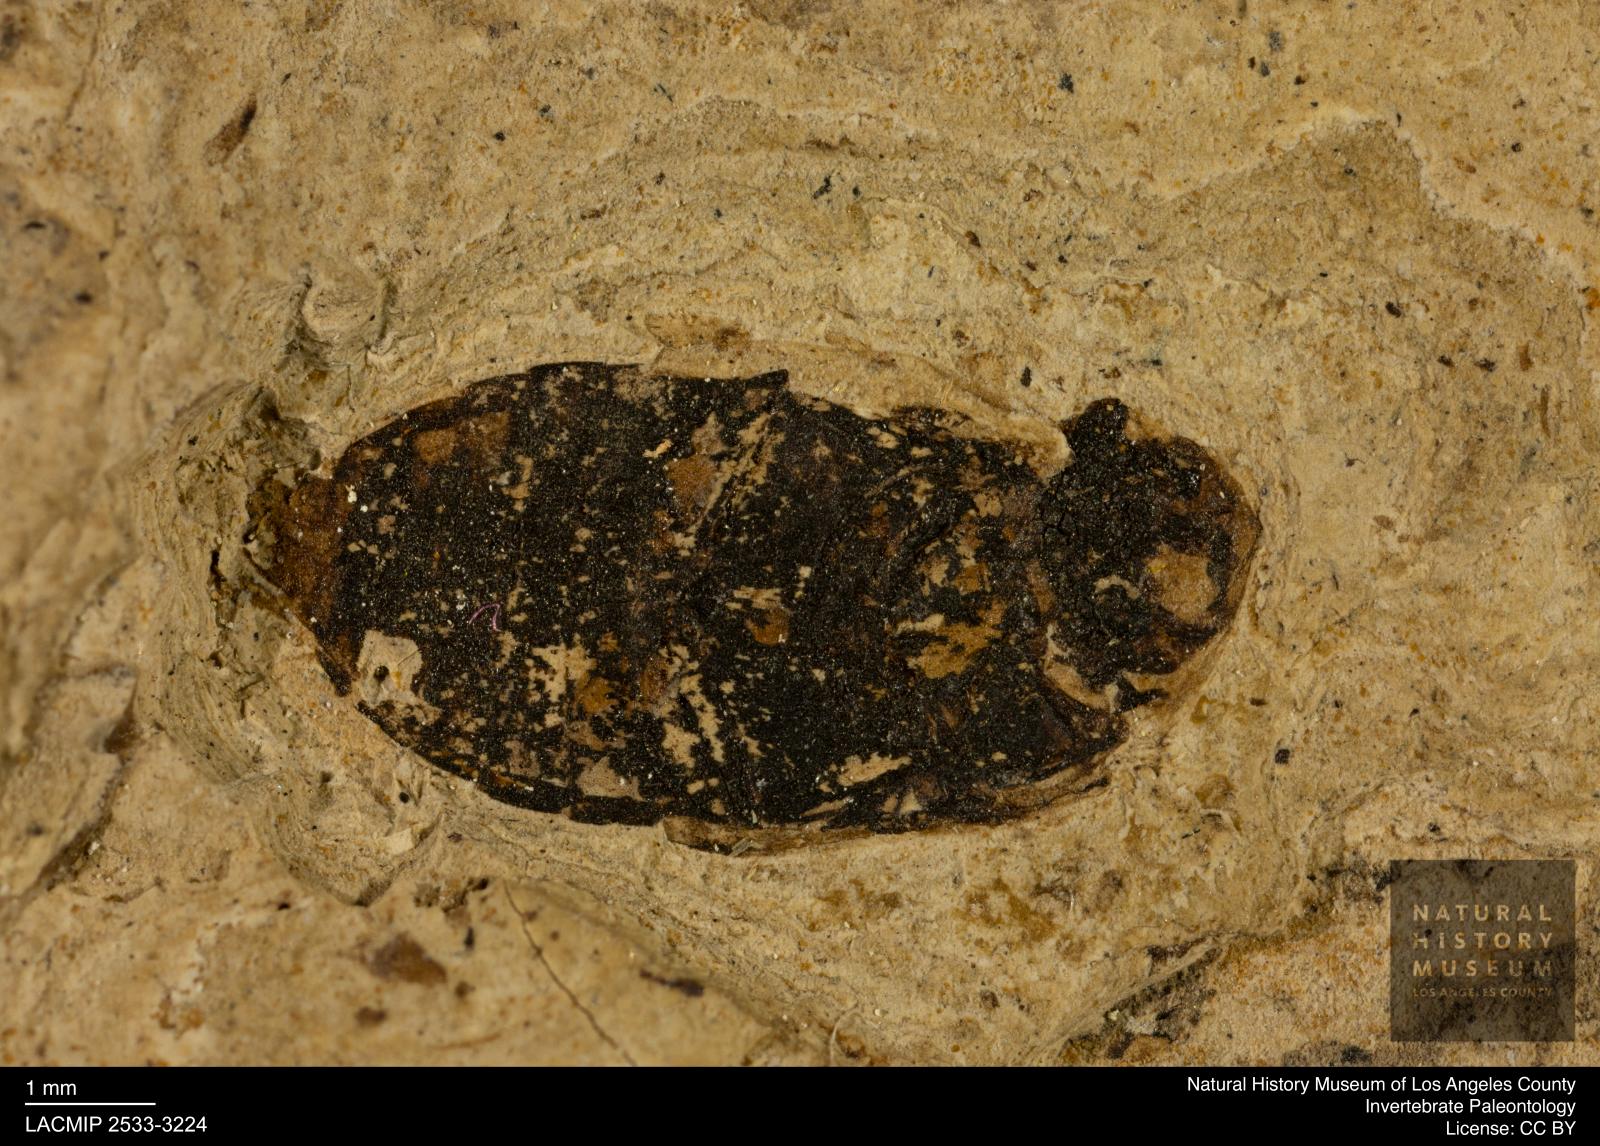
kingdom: Animalia
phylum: Arthropoda
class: Insecta
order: Coleoptera
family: Hydrophilidae
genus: Berosus
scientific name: Berosus morticinus
